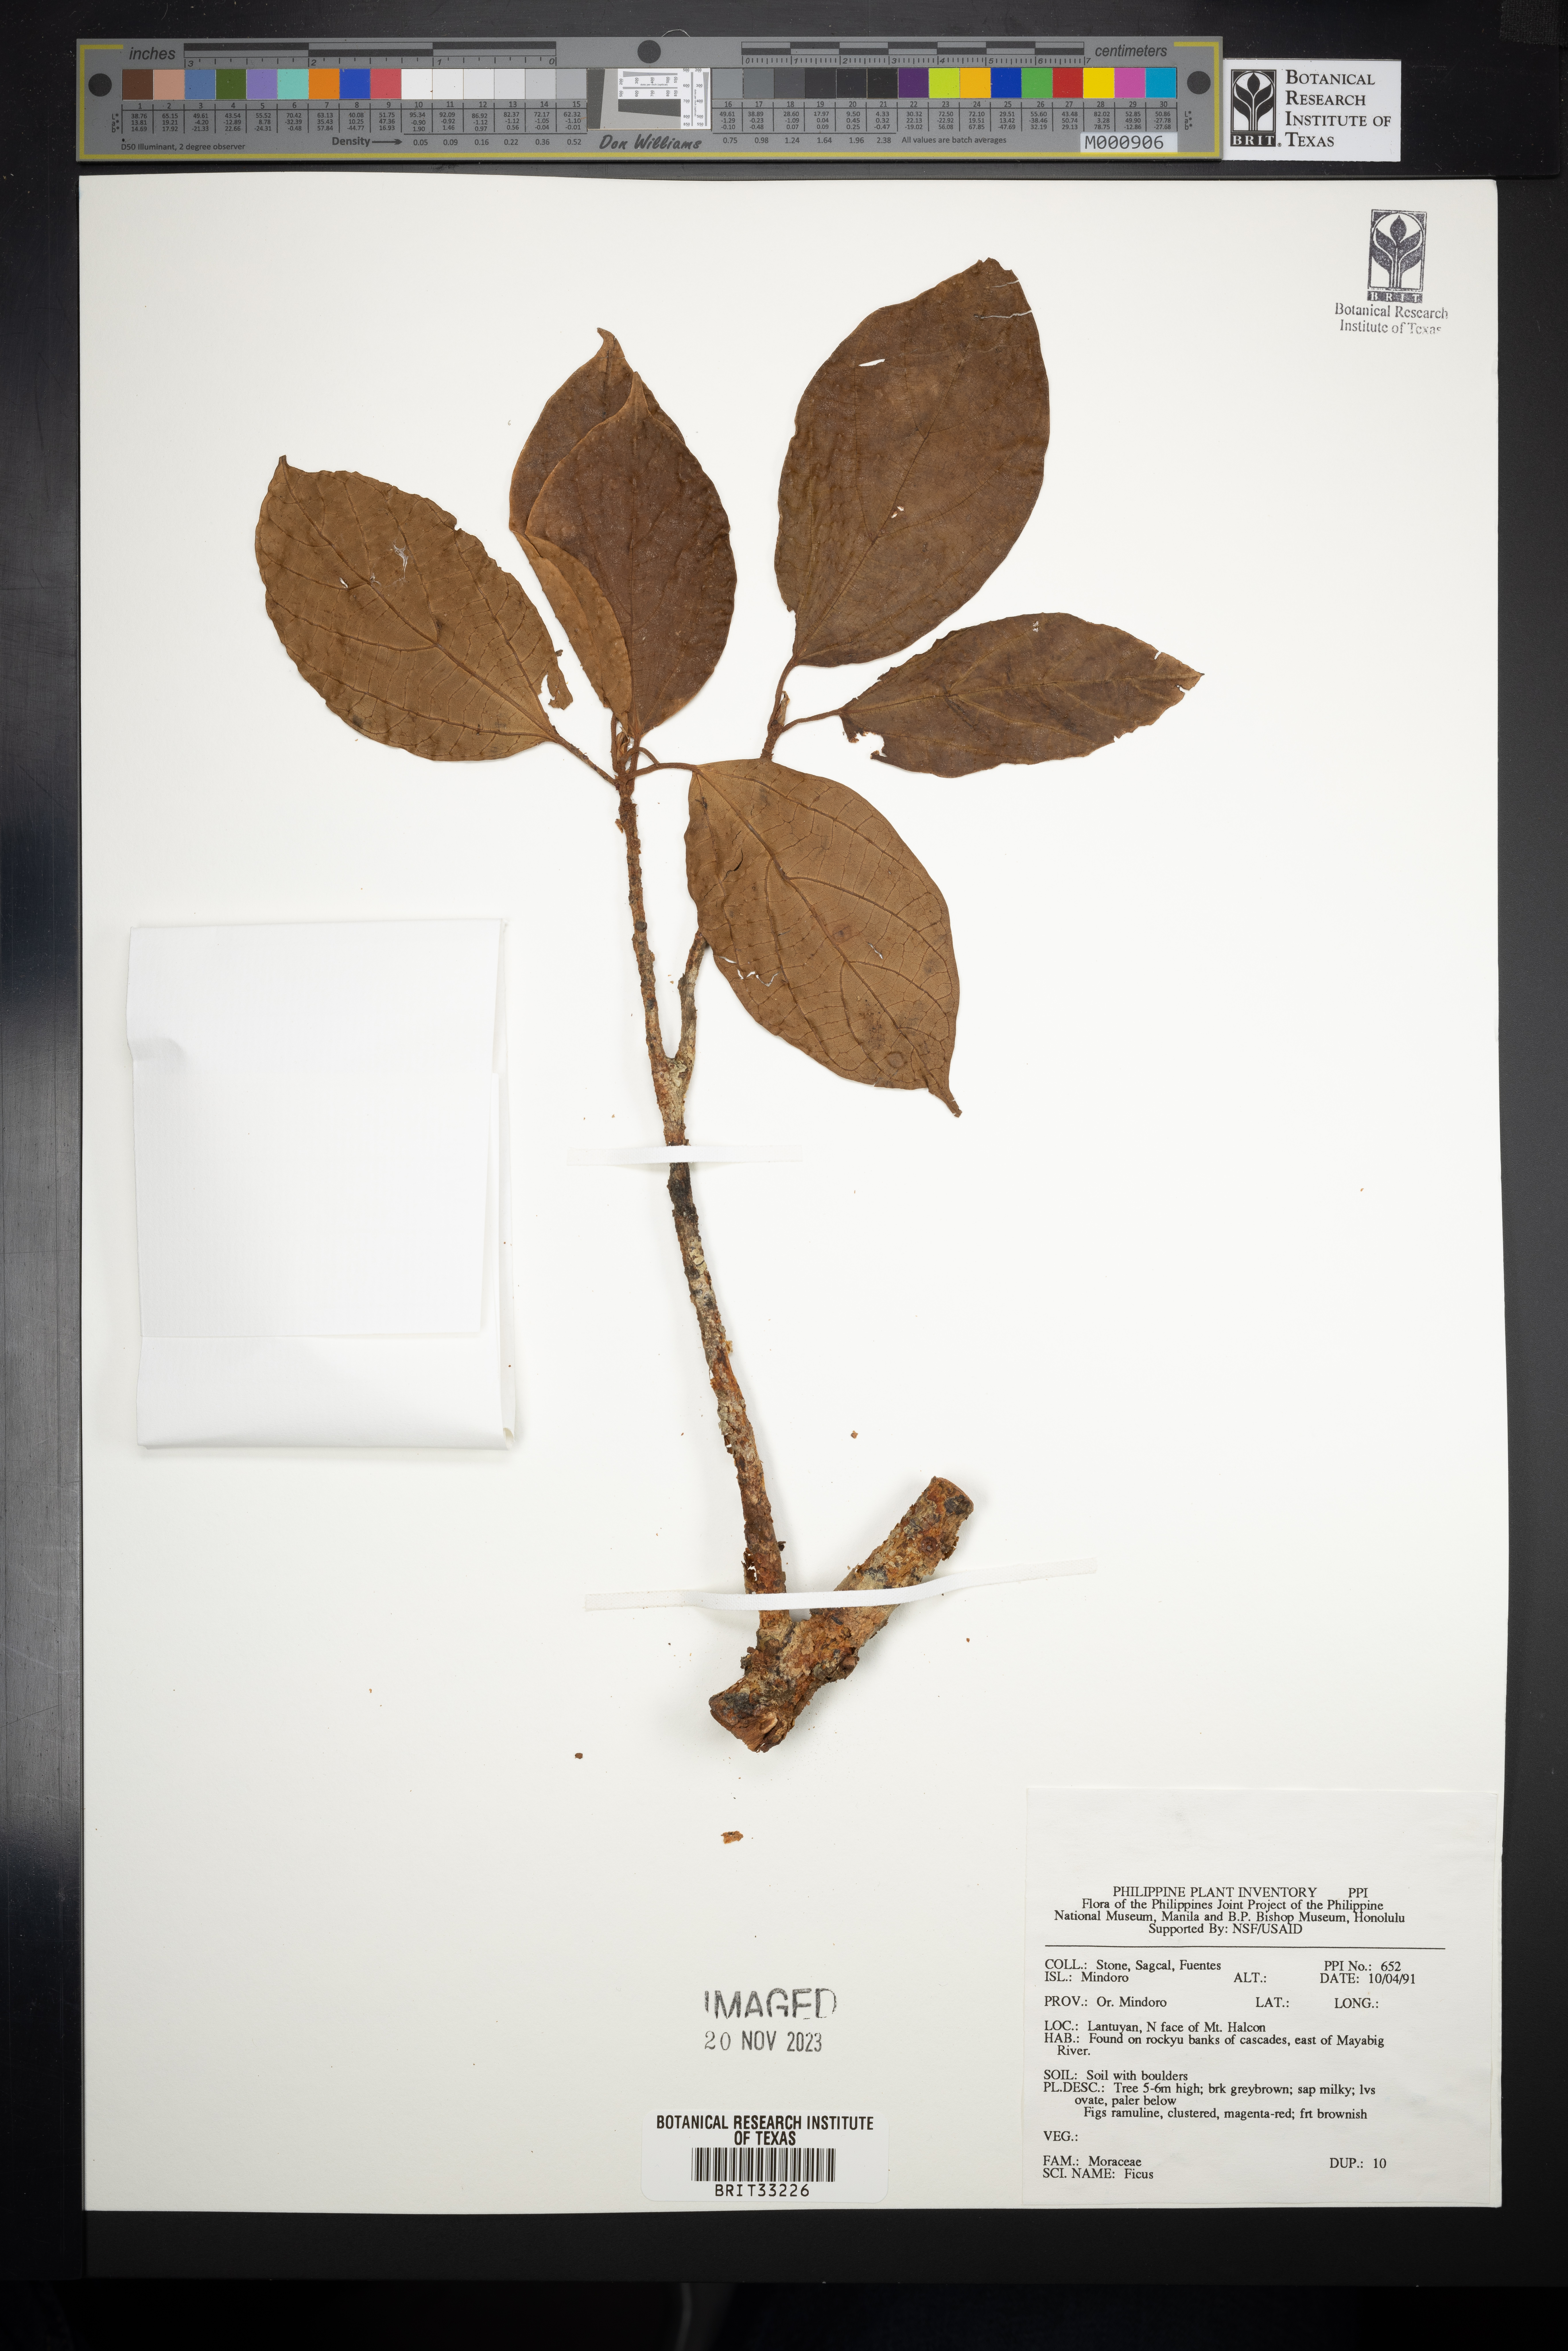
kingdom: Plantae
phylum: Tracheophyta
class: Magnoliopsida
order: Rosales
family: Moraceae
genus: Ficus
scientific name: Ficus
